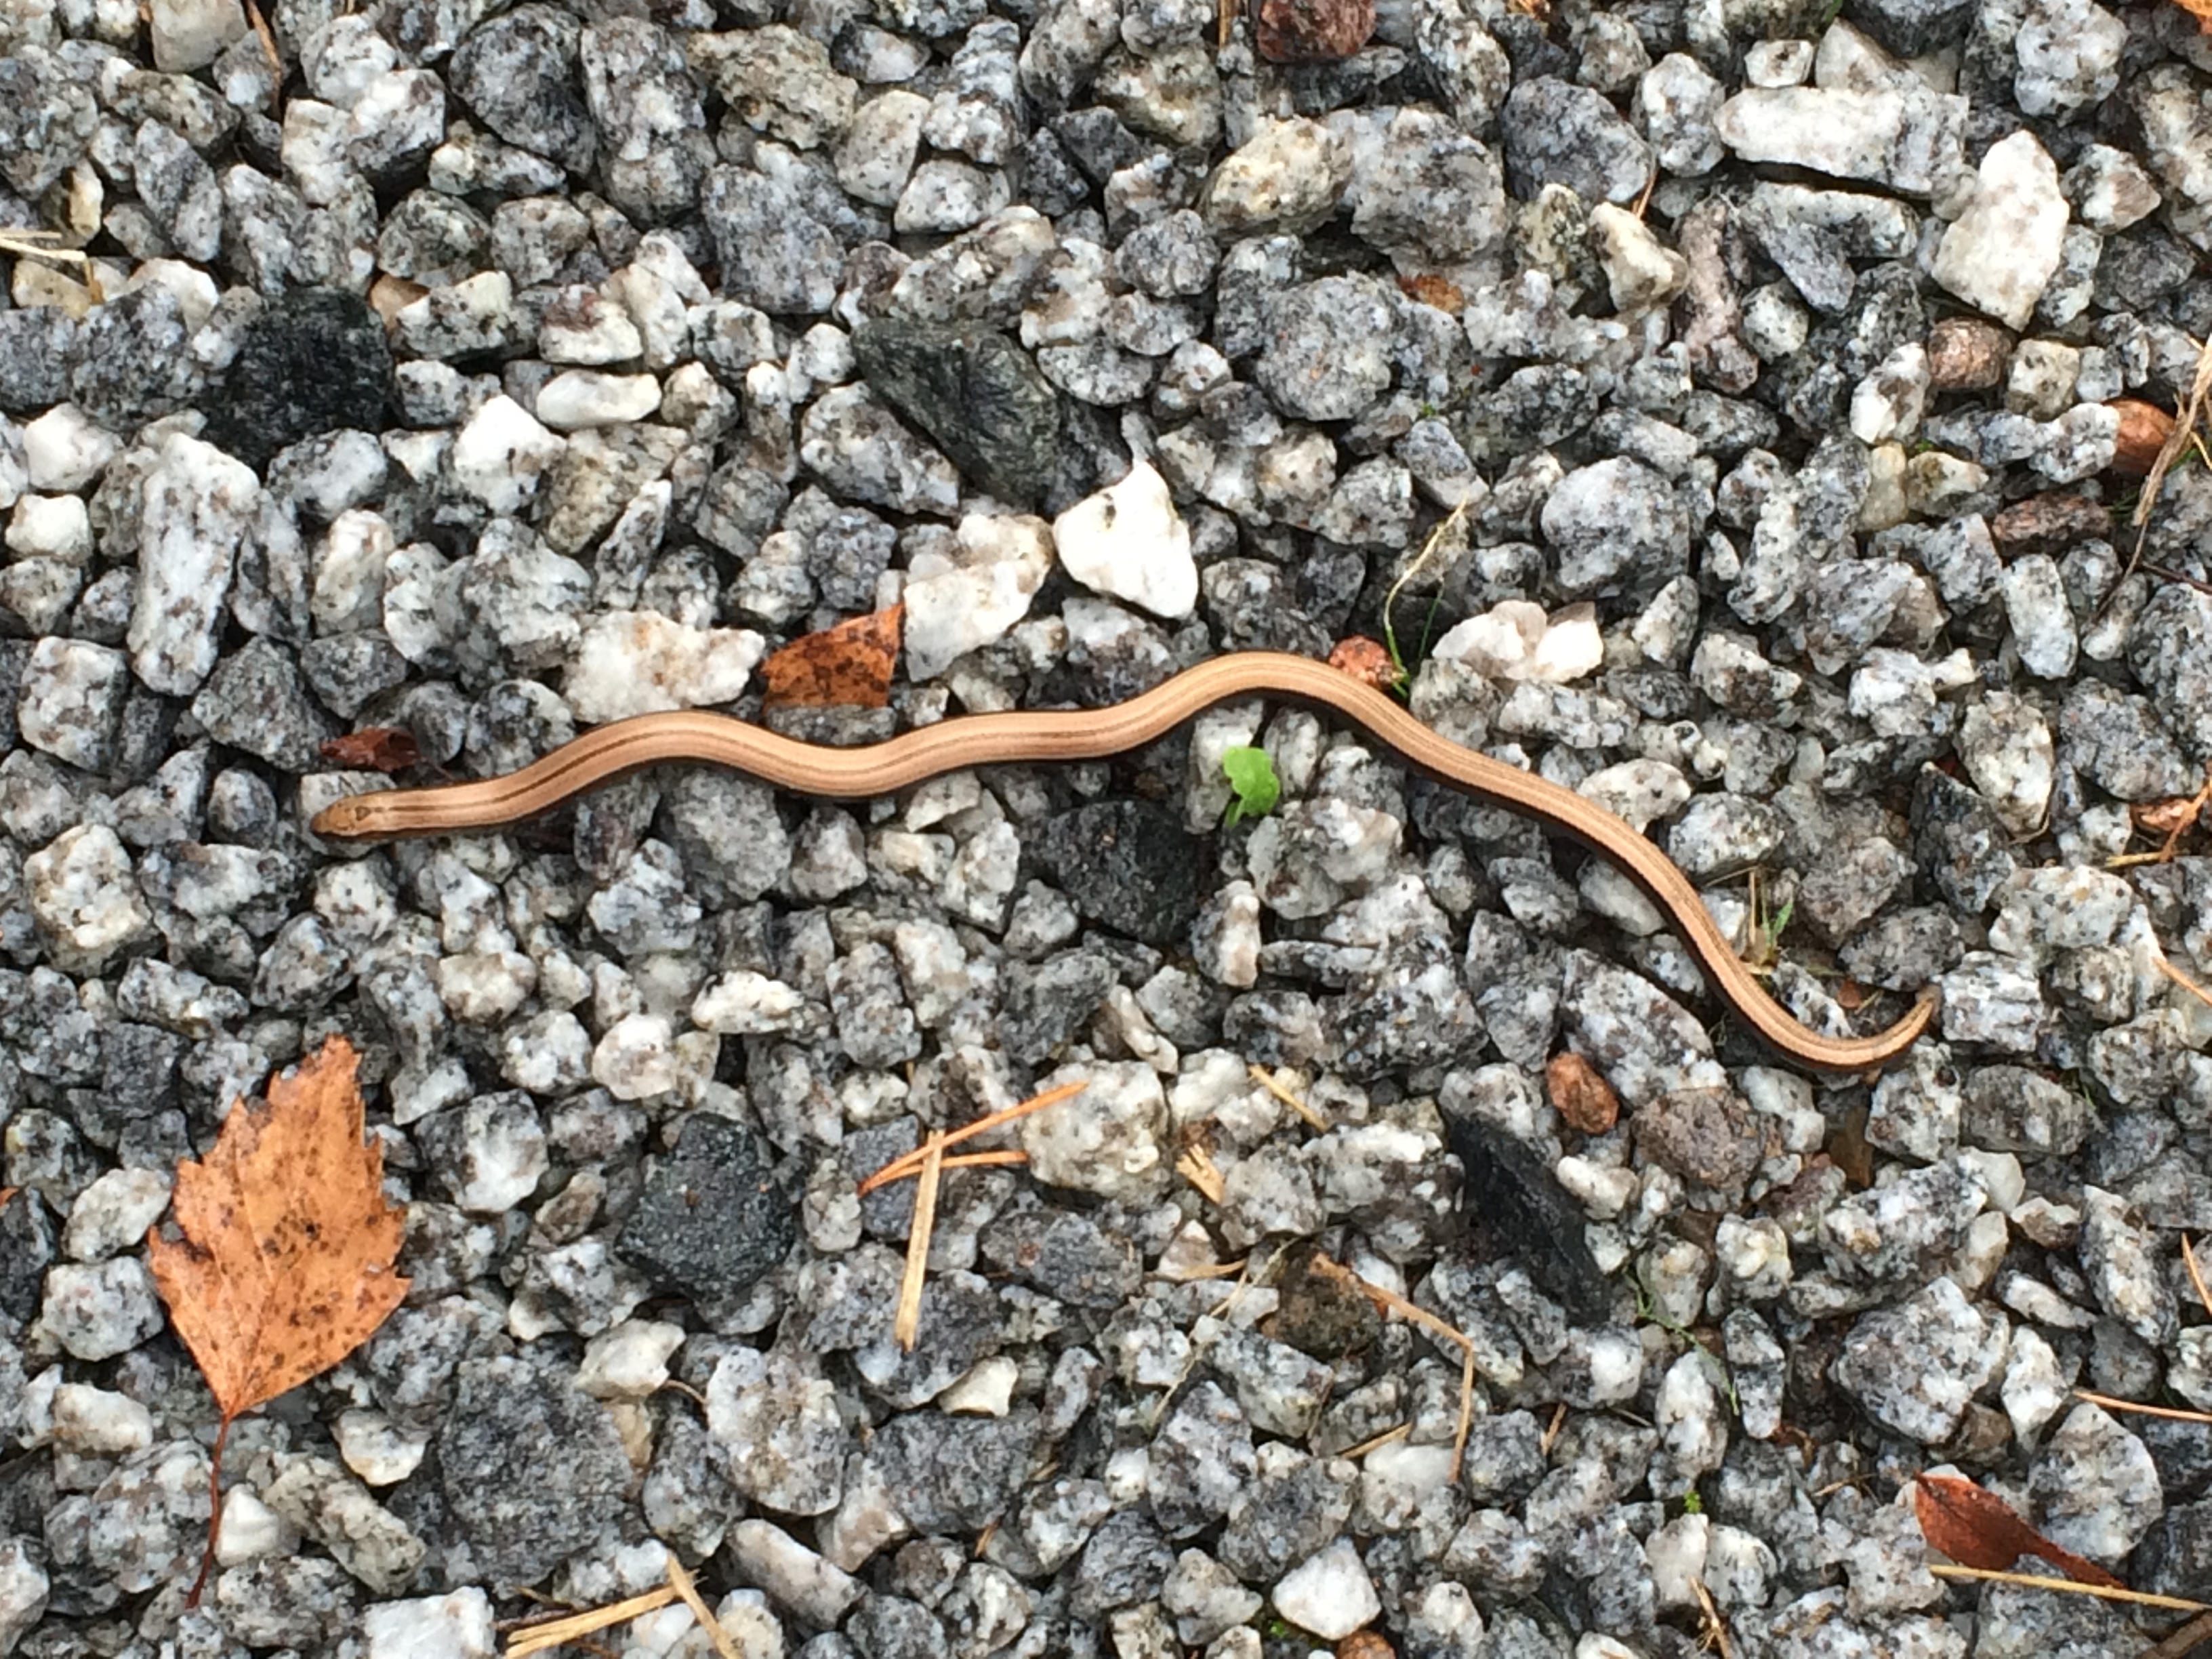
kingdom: Animalia
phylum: Chordata
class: Squamata
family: Anguidae
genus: Anguis
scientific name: Anguis colchica
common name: Slow worm
